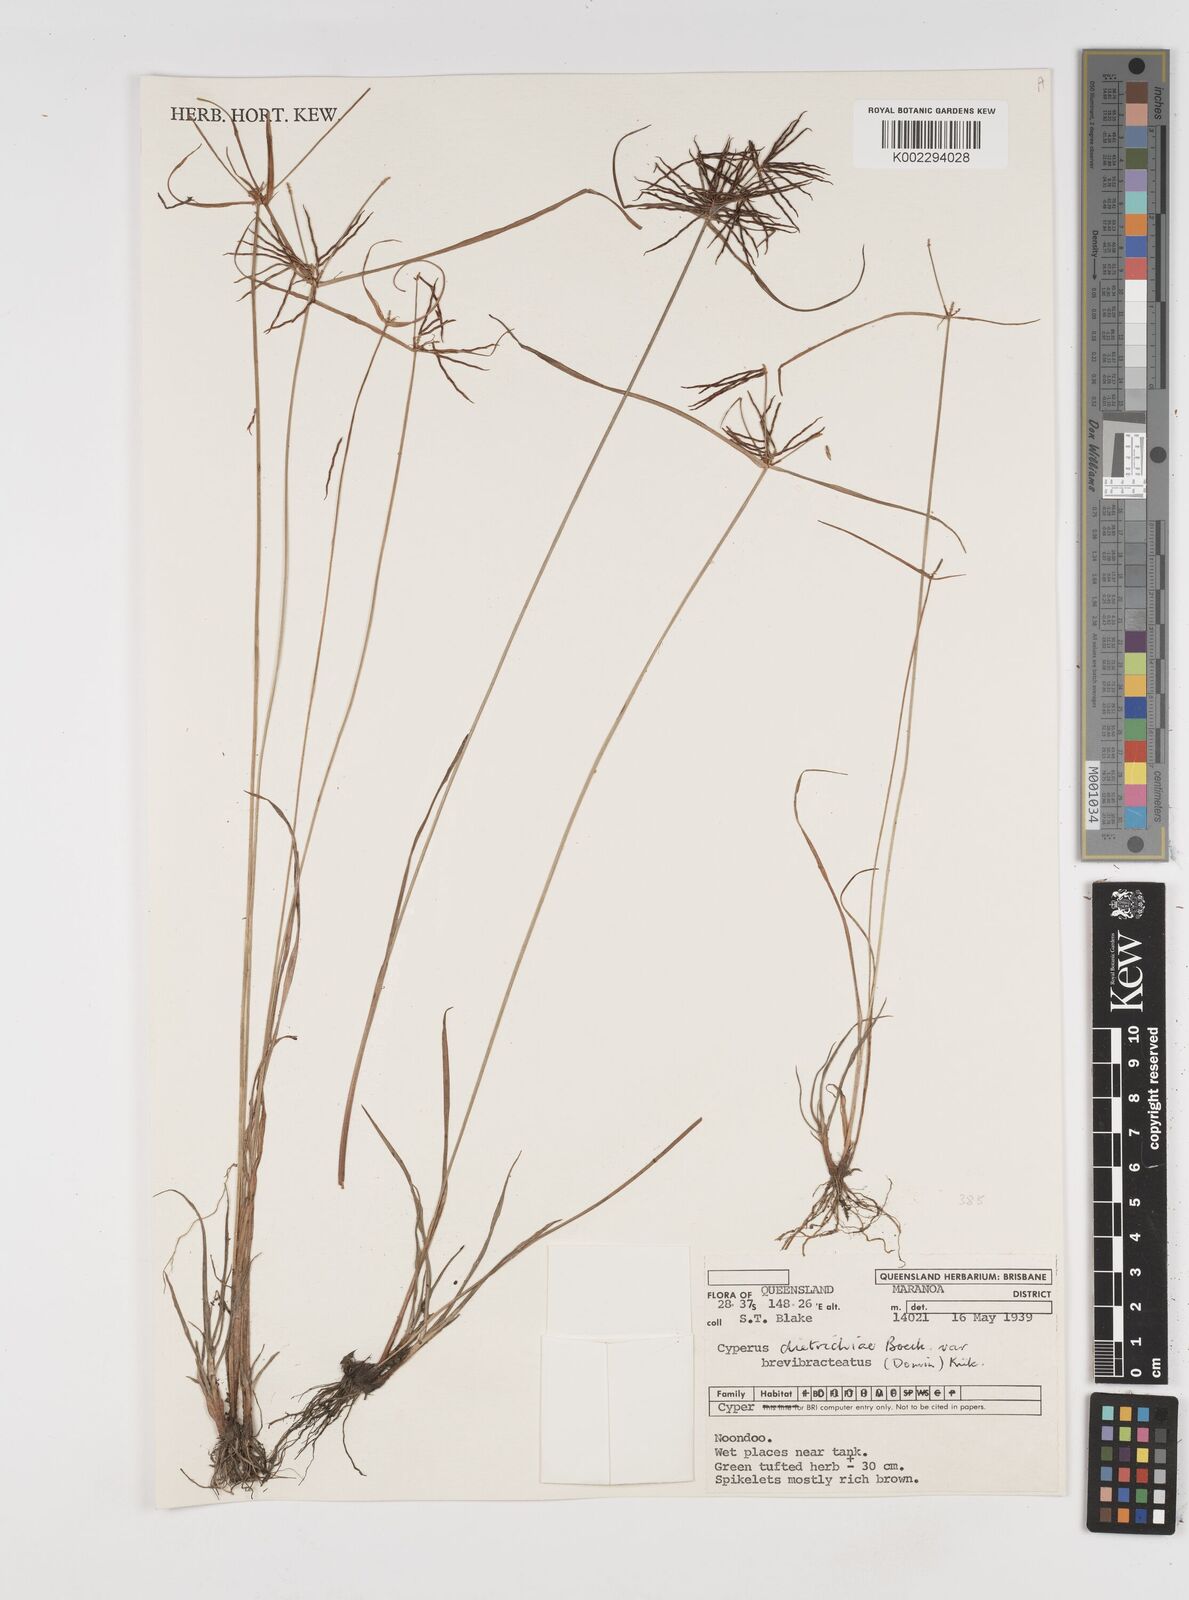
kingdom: Plantae
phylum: Tracheophyta
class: Liliopsida
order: Poales
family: Cyperaceae
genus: Cyperus
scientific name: Cyperus dietrichiae
